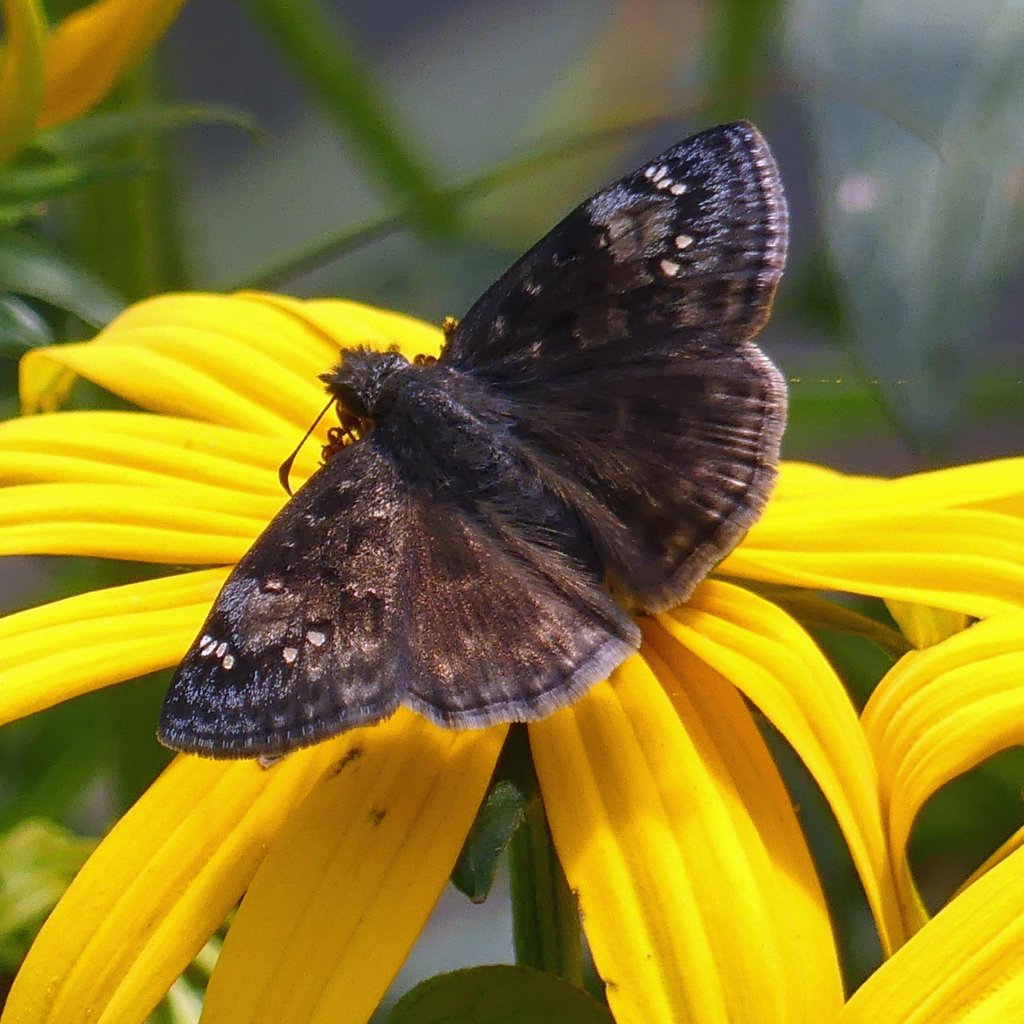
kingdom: Animalia
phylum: Arthropoda
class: Insecta
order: Lepidoptera
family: Hesperiidae
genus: Gesta
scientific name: Gesta
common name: Wild Indigo Duskywing
